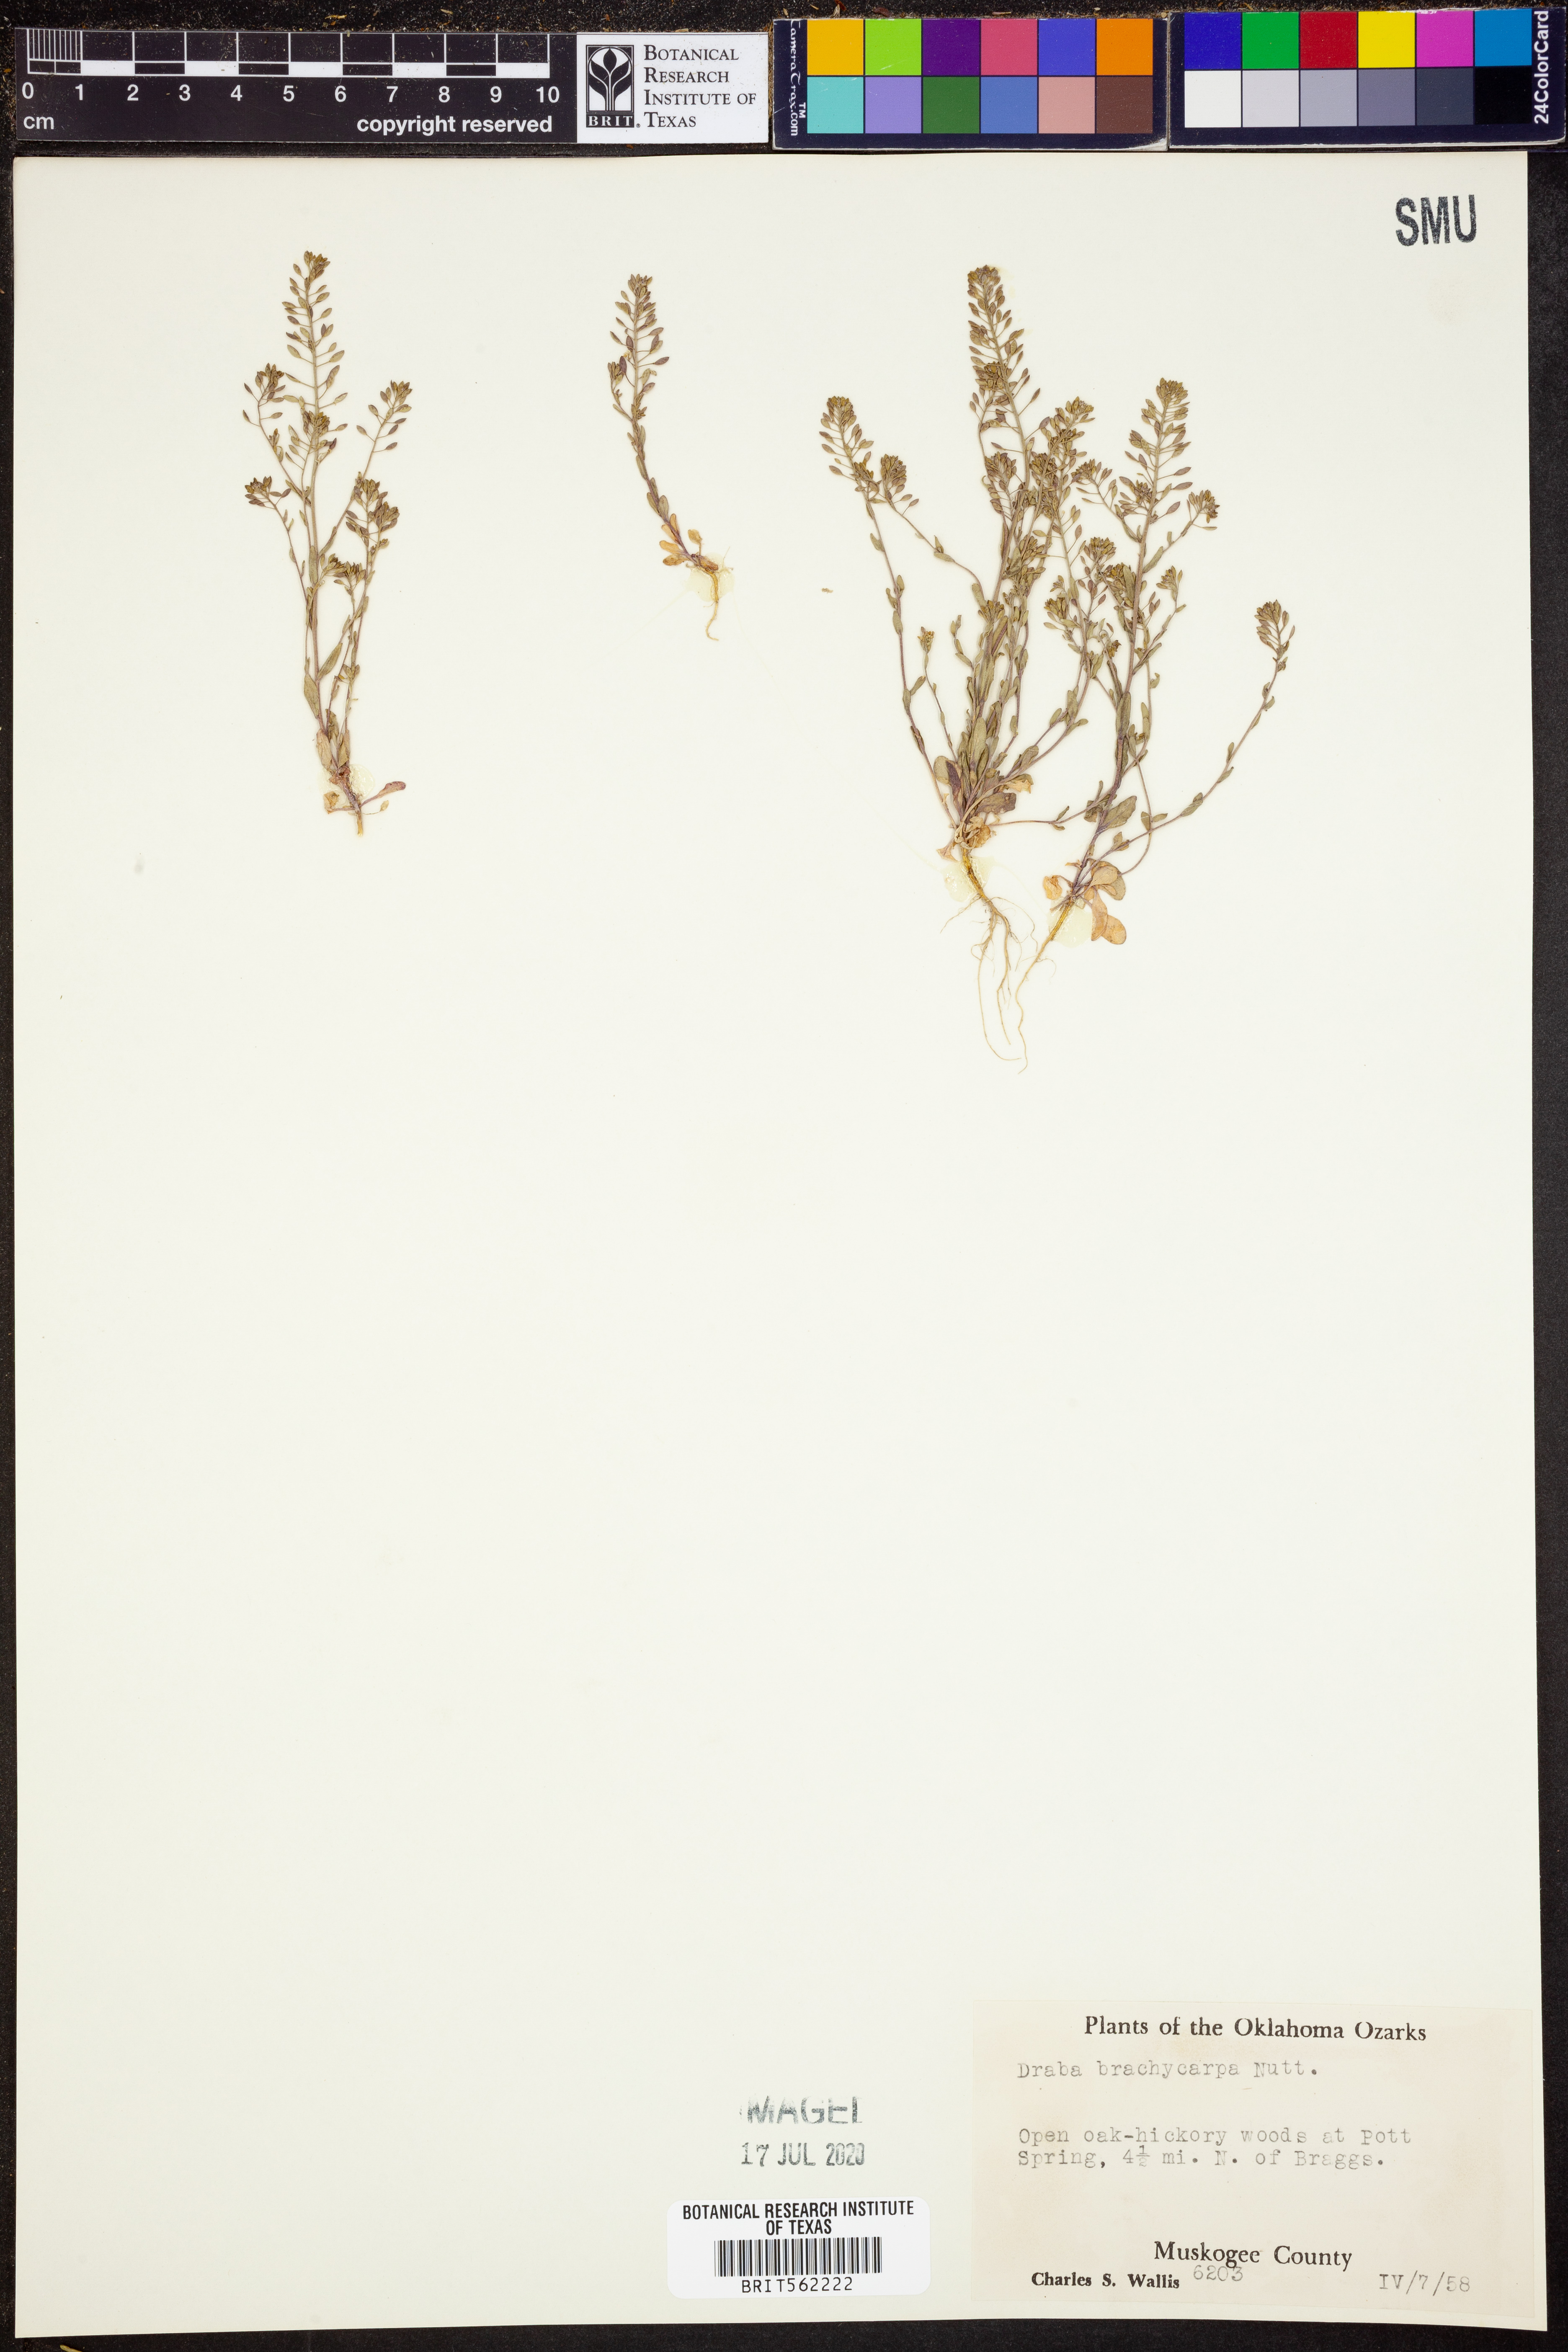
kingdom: Plantae
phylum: Tracheophyta
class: Magnoliopsida
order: Brassicales
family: Brassicaceae
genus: Abdra
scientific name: Abdra brachycarpa
